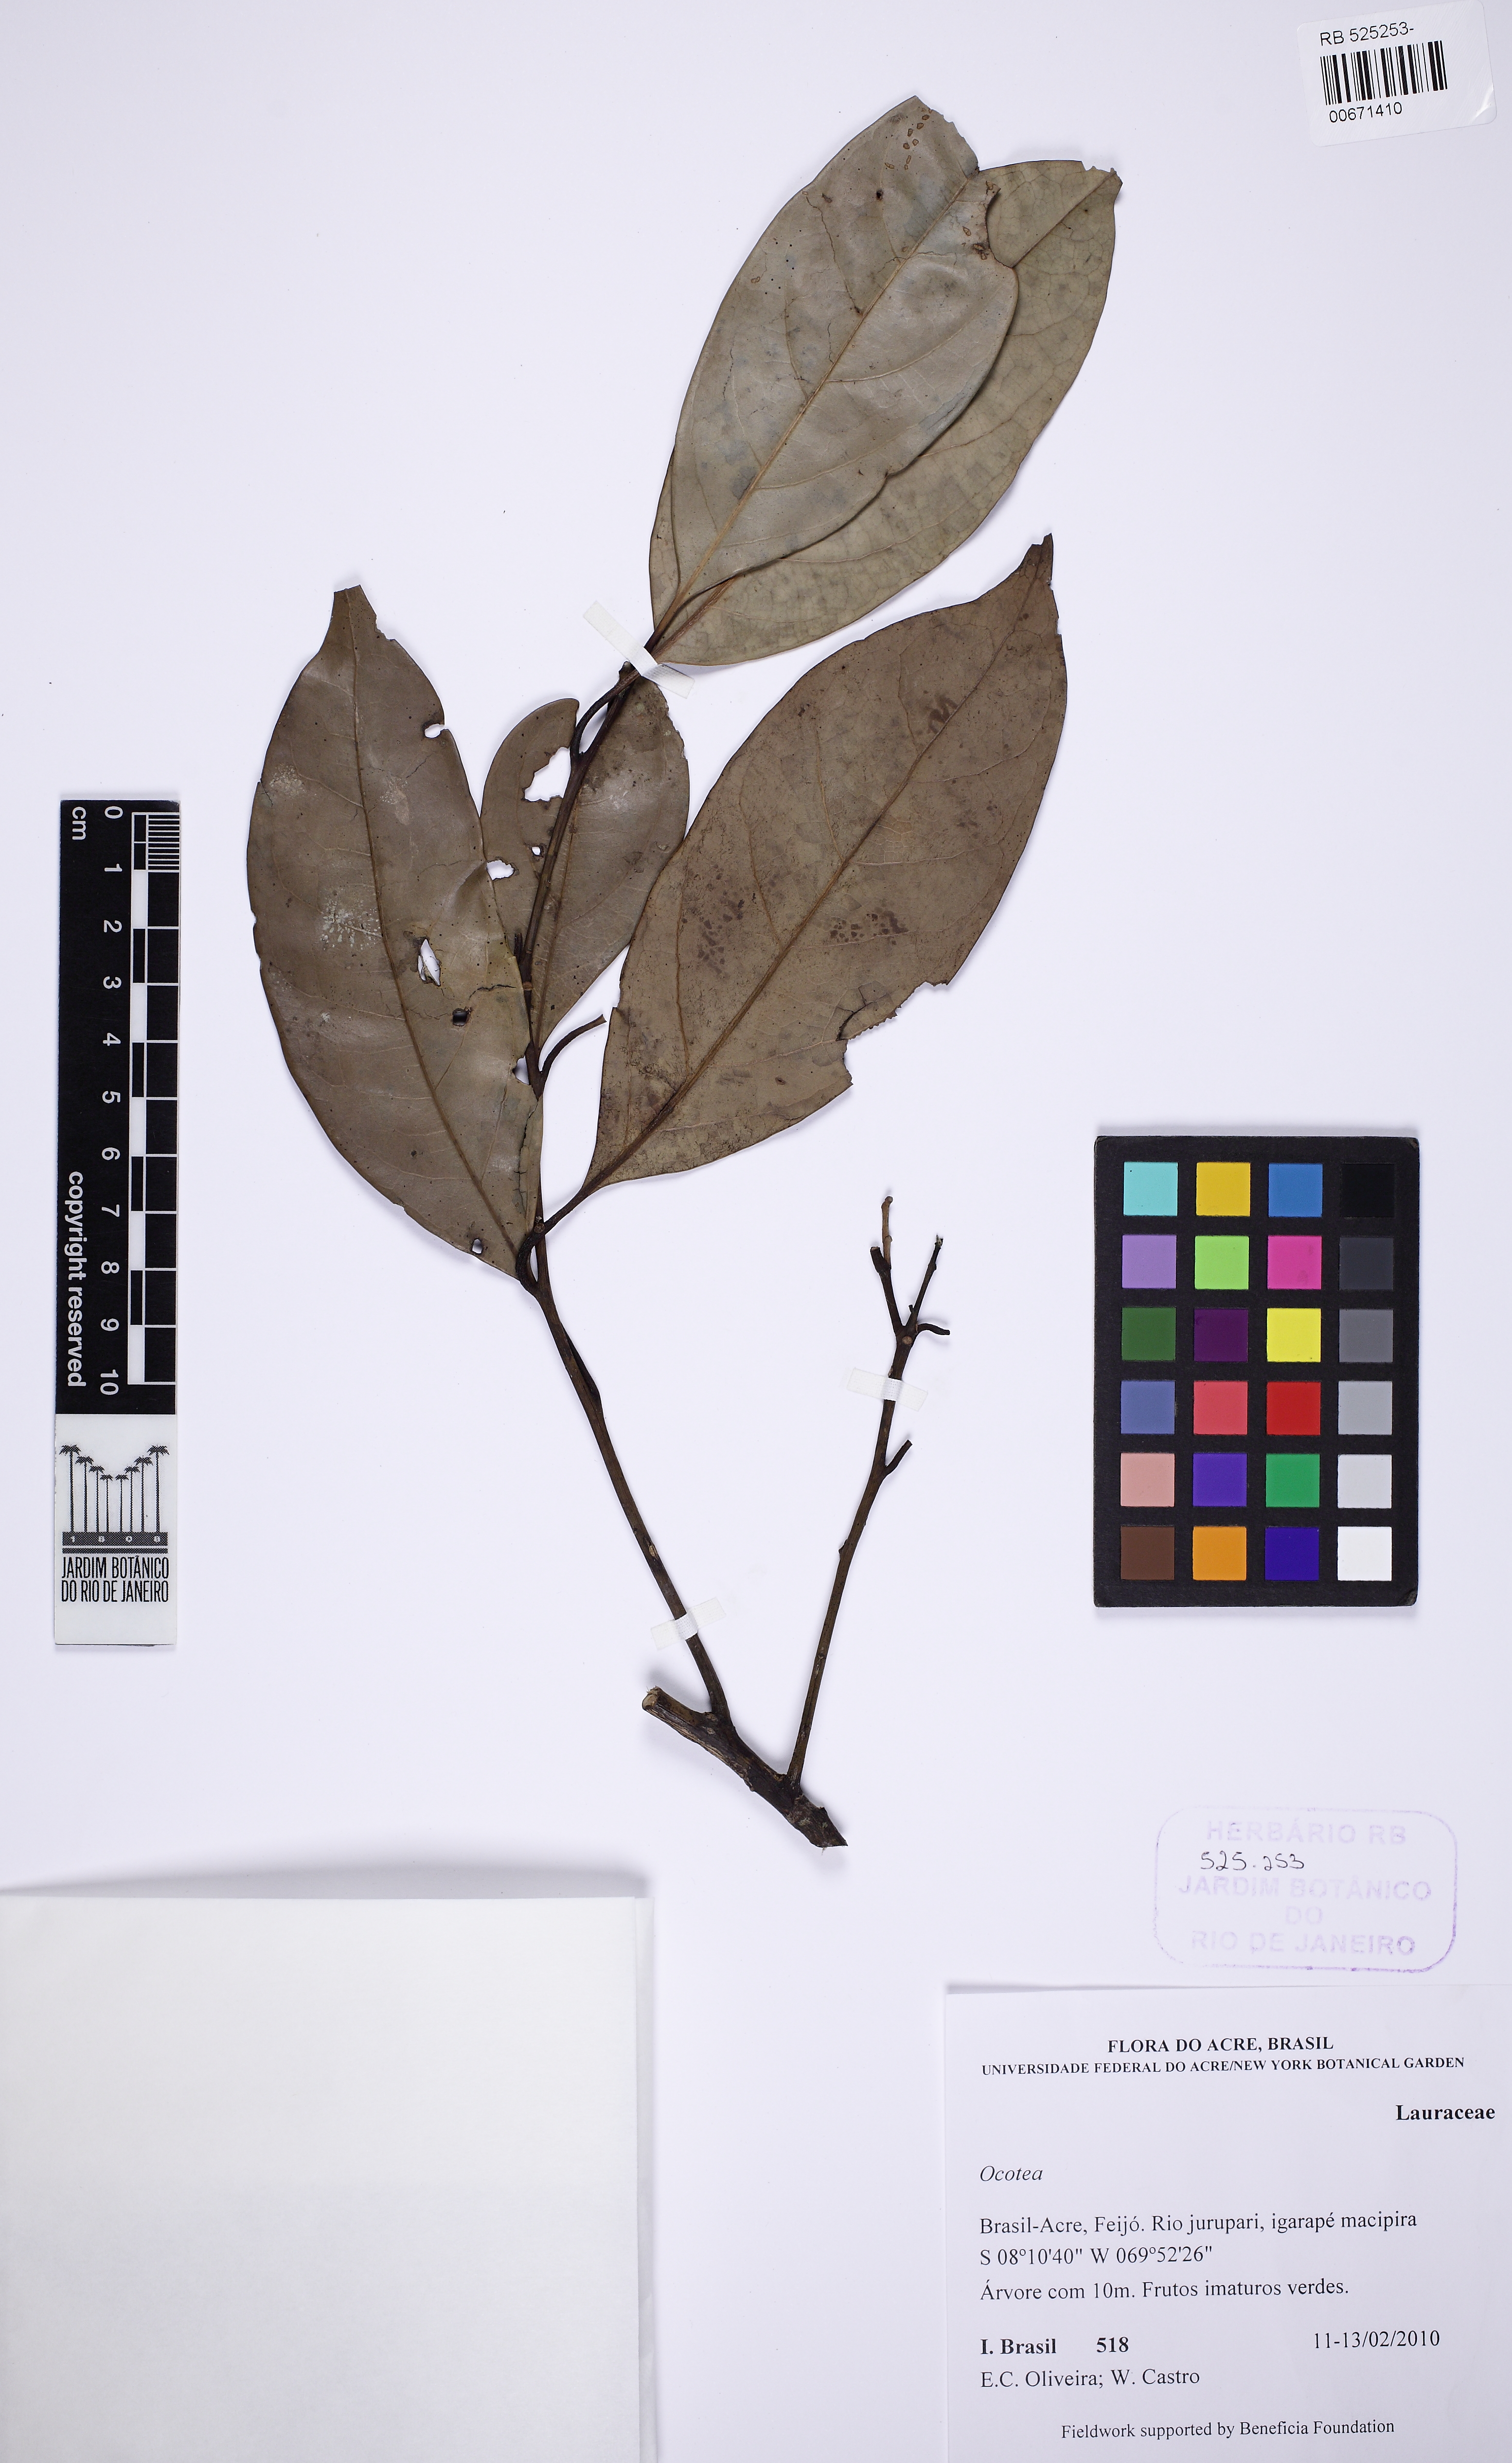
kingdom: Plantae
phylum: Tracheophyta
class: Magnoliopsida
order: Laurales
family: Lauraceae
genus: Ocotea
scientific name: Ocotea
